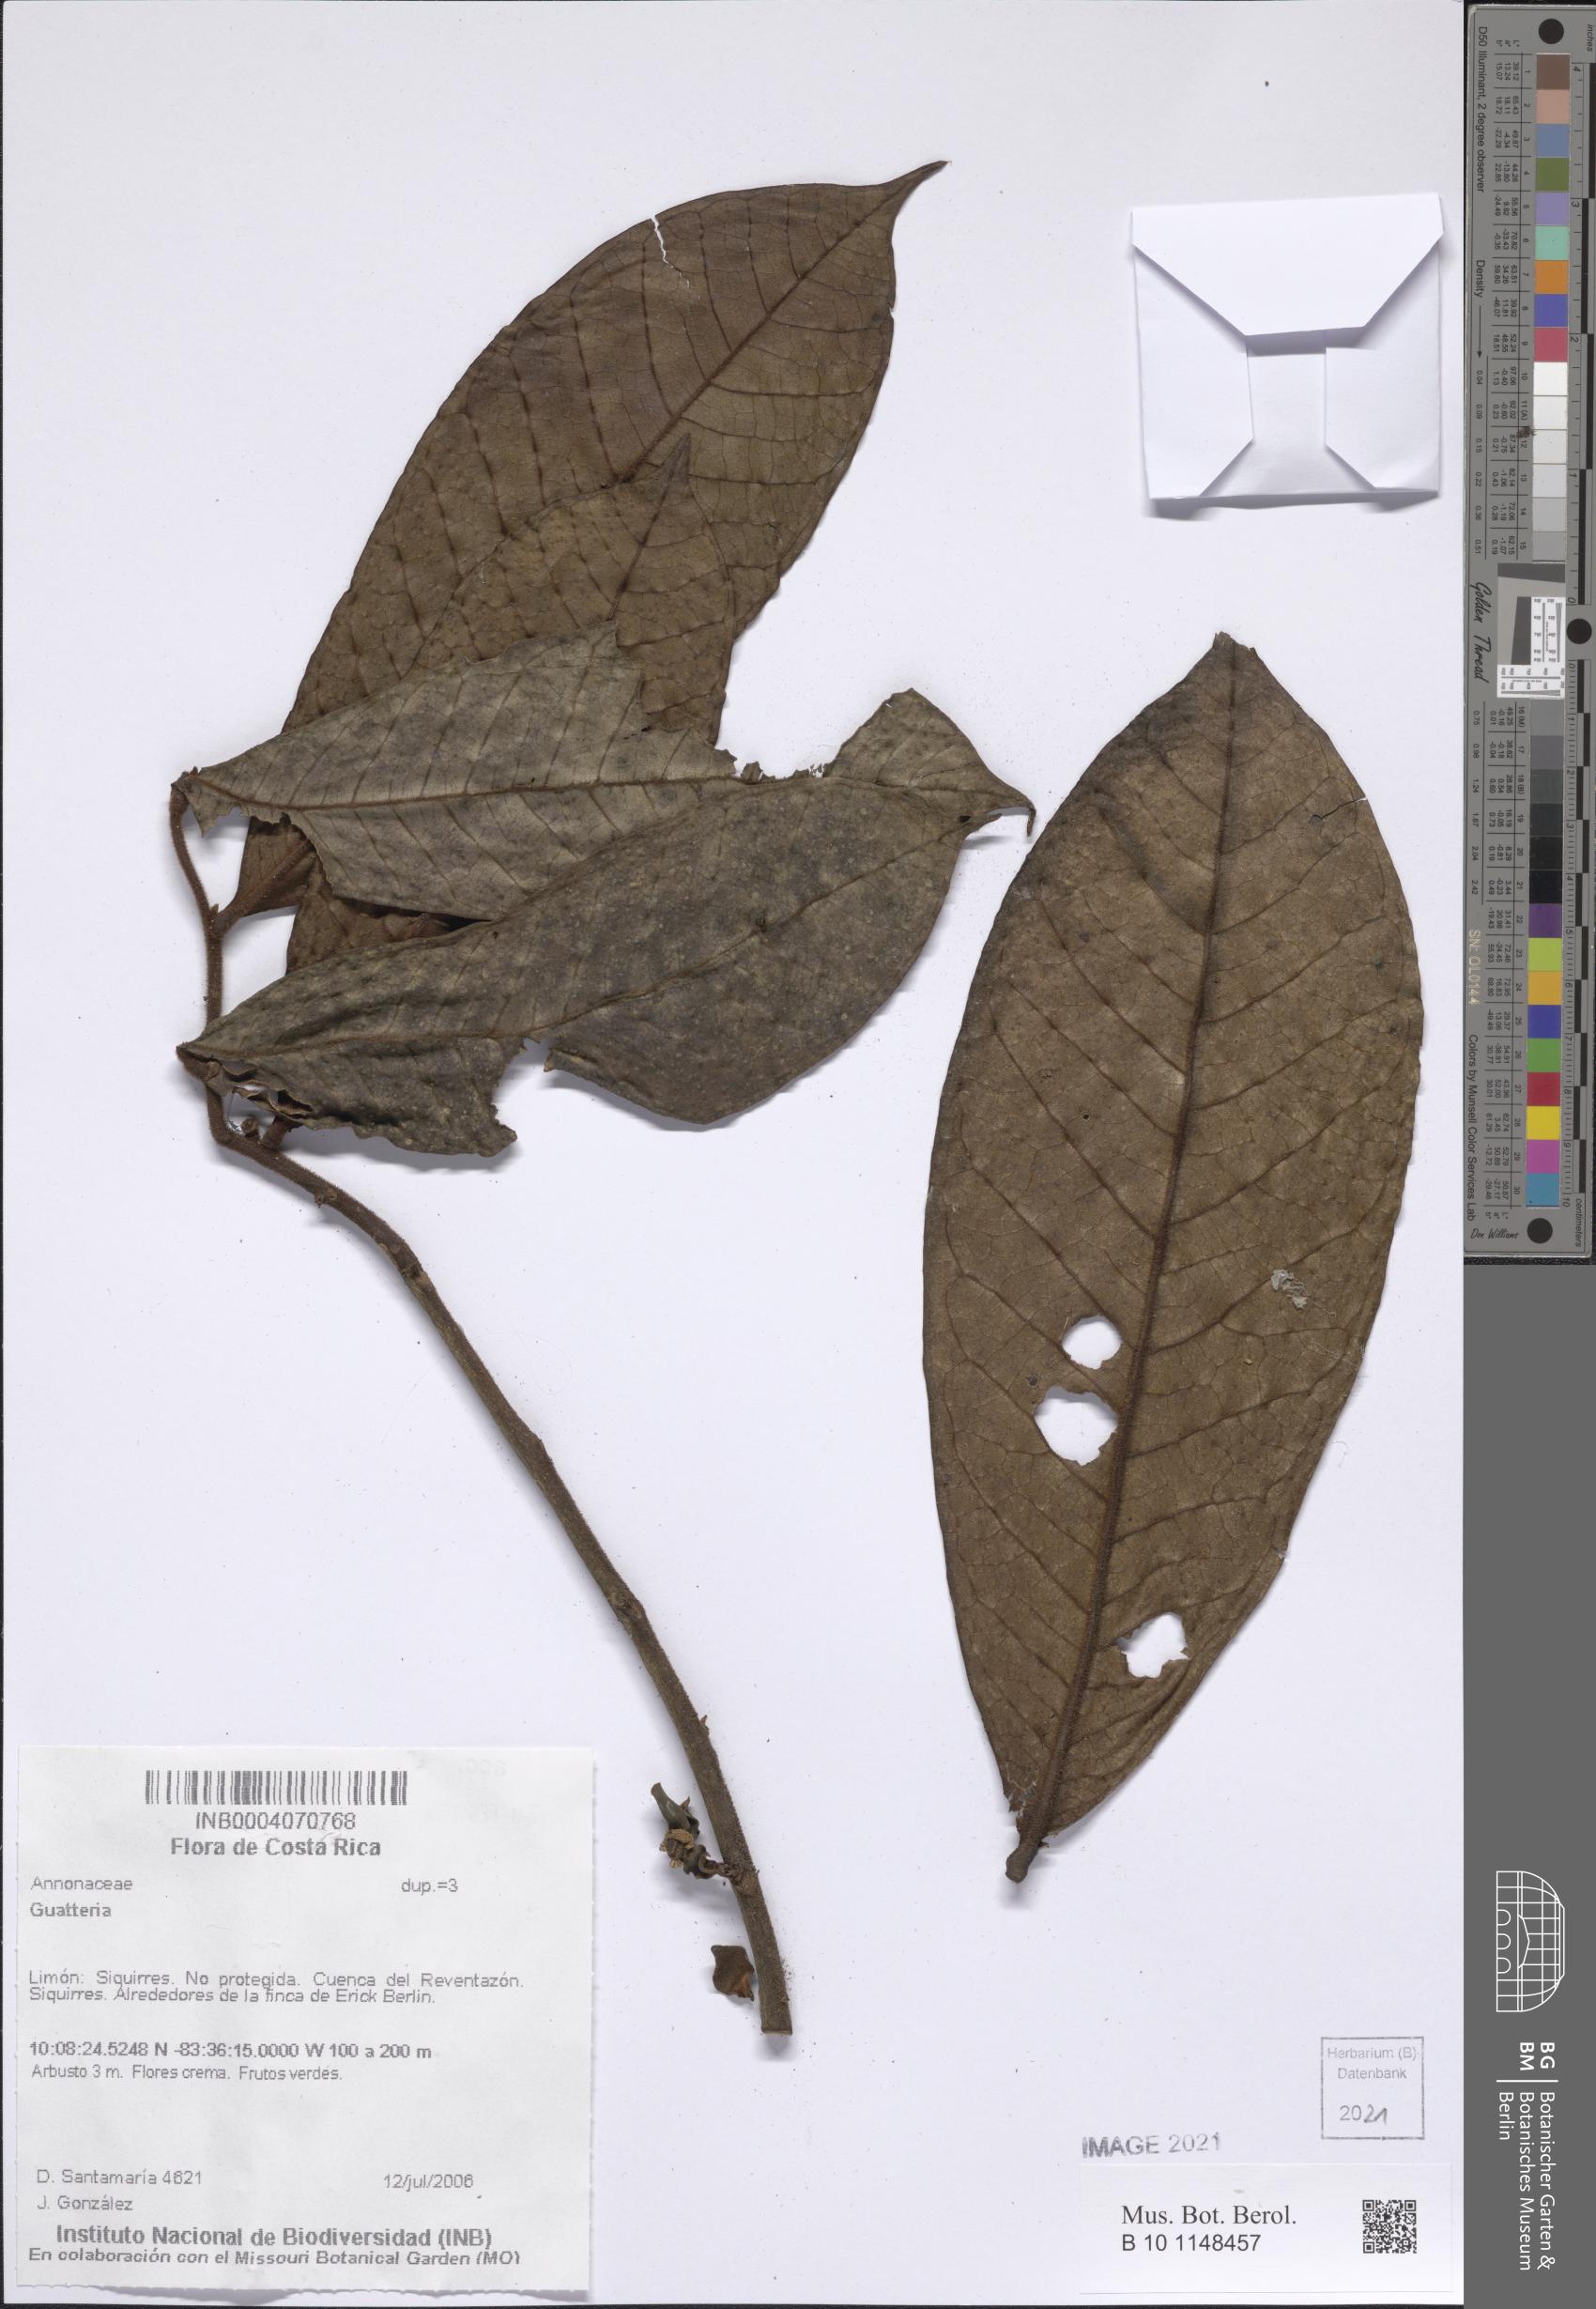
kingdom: Plantae
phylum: Tracheophyta
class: Magnoliopsida
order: Magnoliales
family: Annonaceae
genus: Guatteria
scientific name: Guatteria
